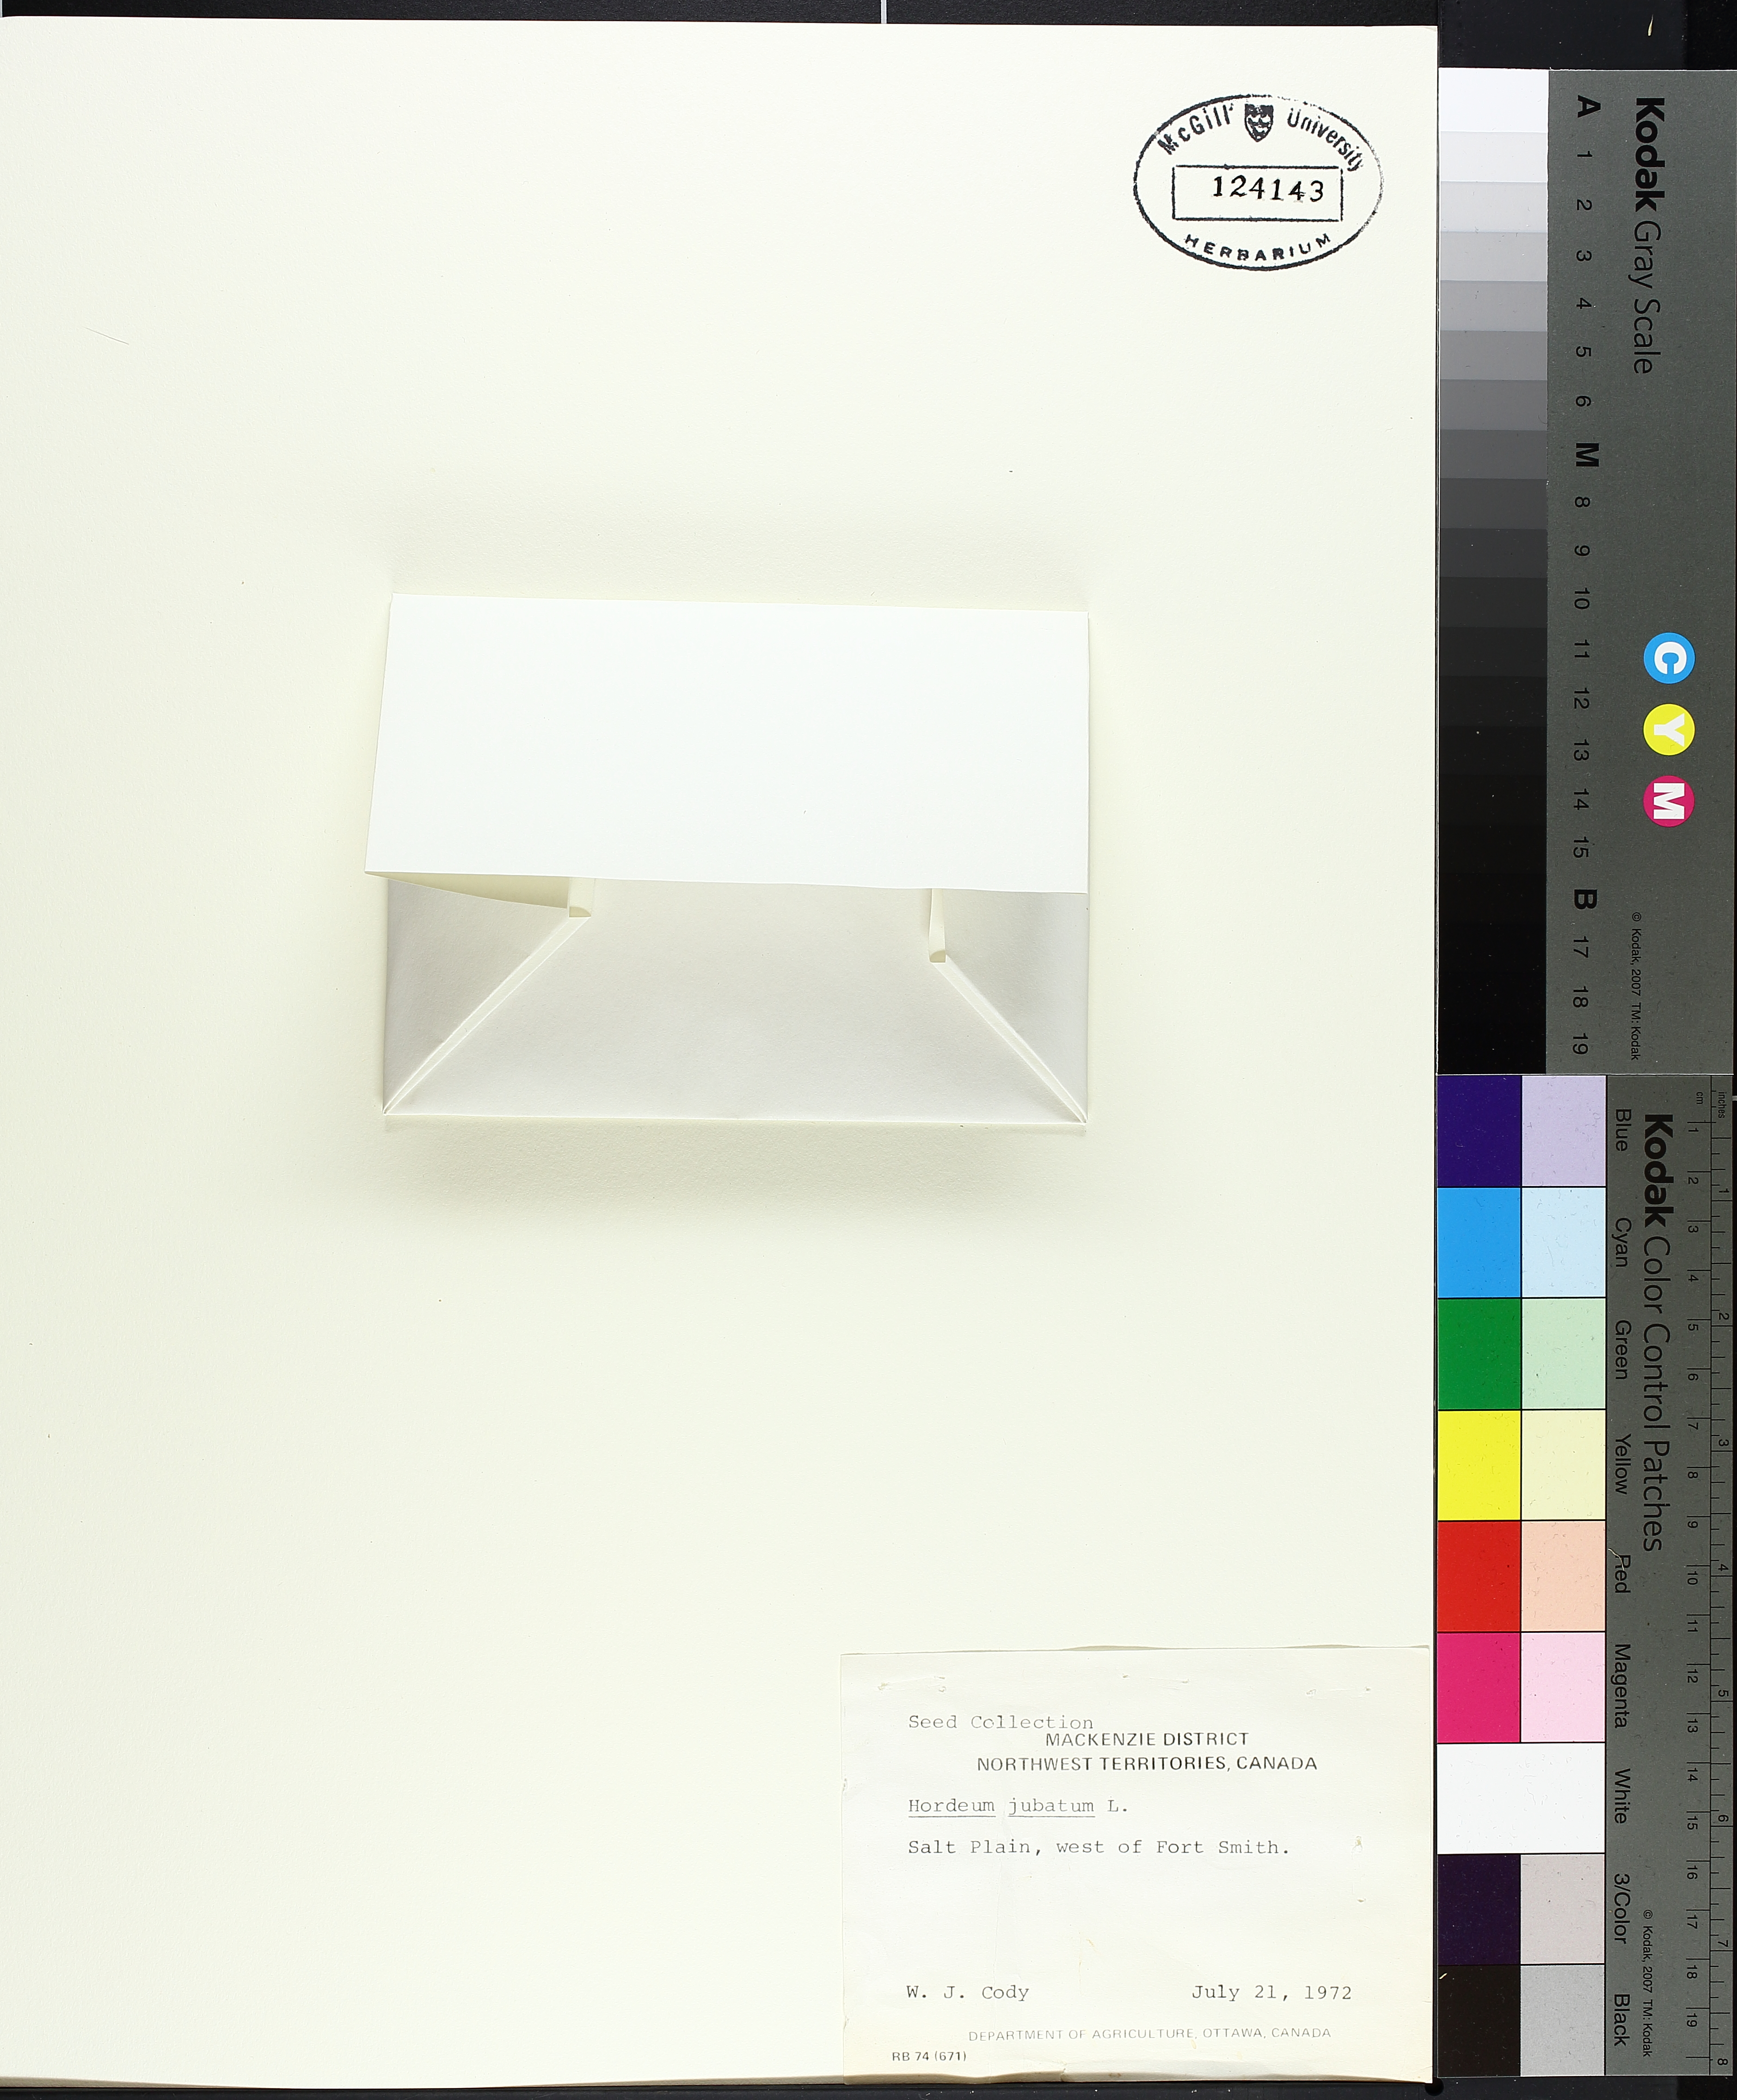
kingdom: Plantae
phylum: Tracheophyta
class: Liliopsida
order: Poales
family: Poaceae
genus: Hordeum
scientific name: Hordeum jubatum
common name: Foxtail barley
